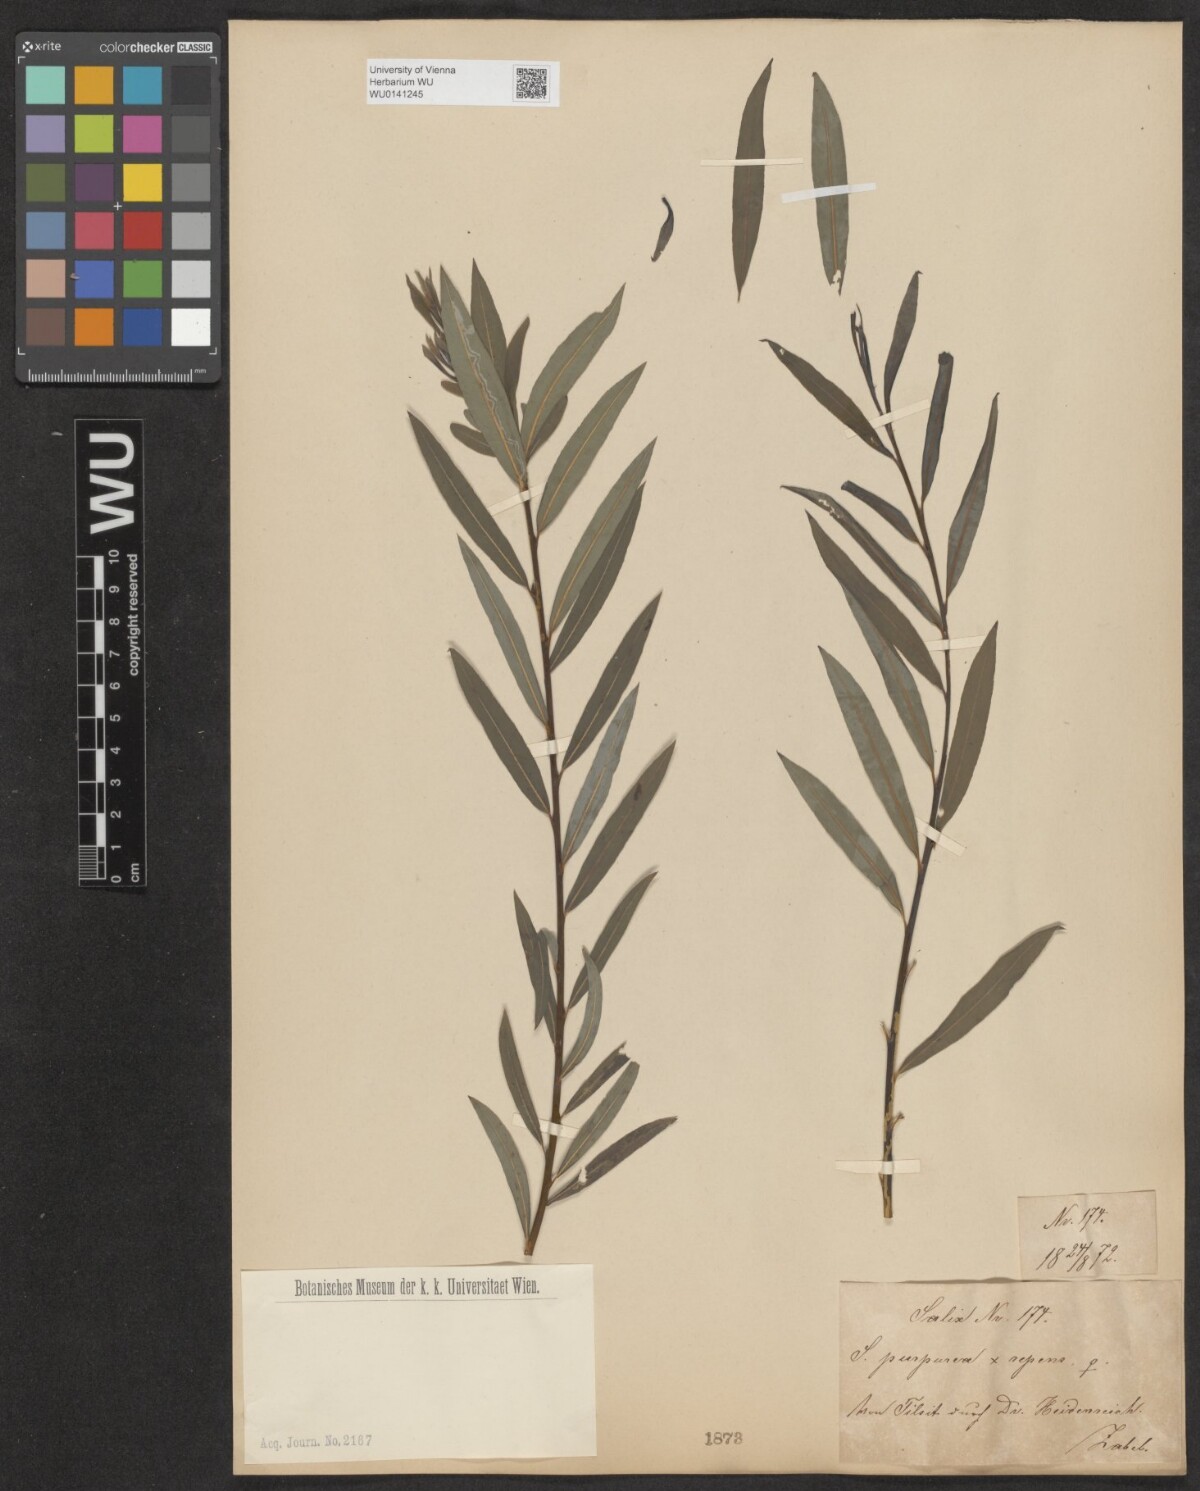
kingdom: Plantae
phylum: Tracheophyta
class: Magnoliopsida
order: Malpighiales
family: Salicaceae
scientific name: Salicaceae
